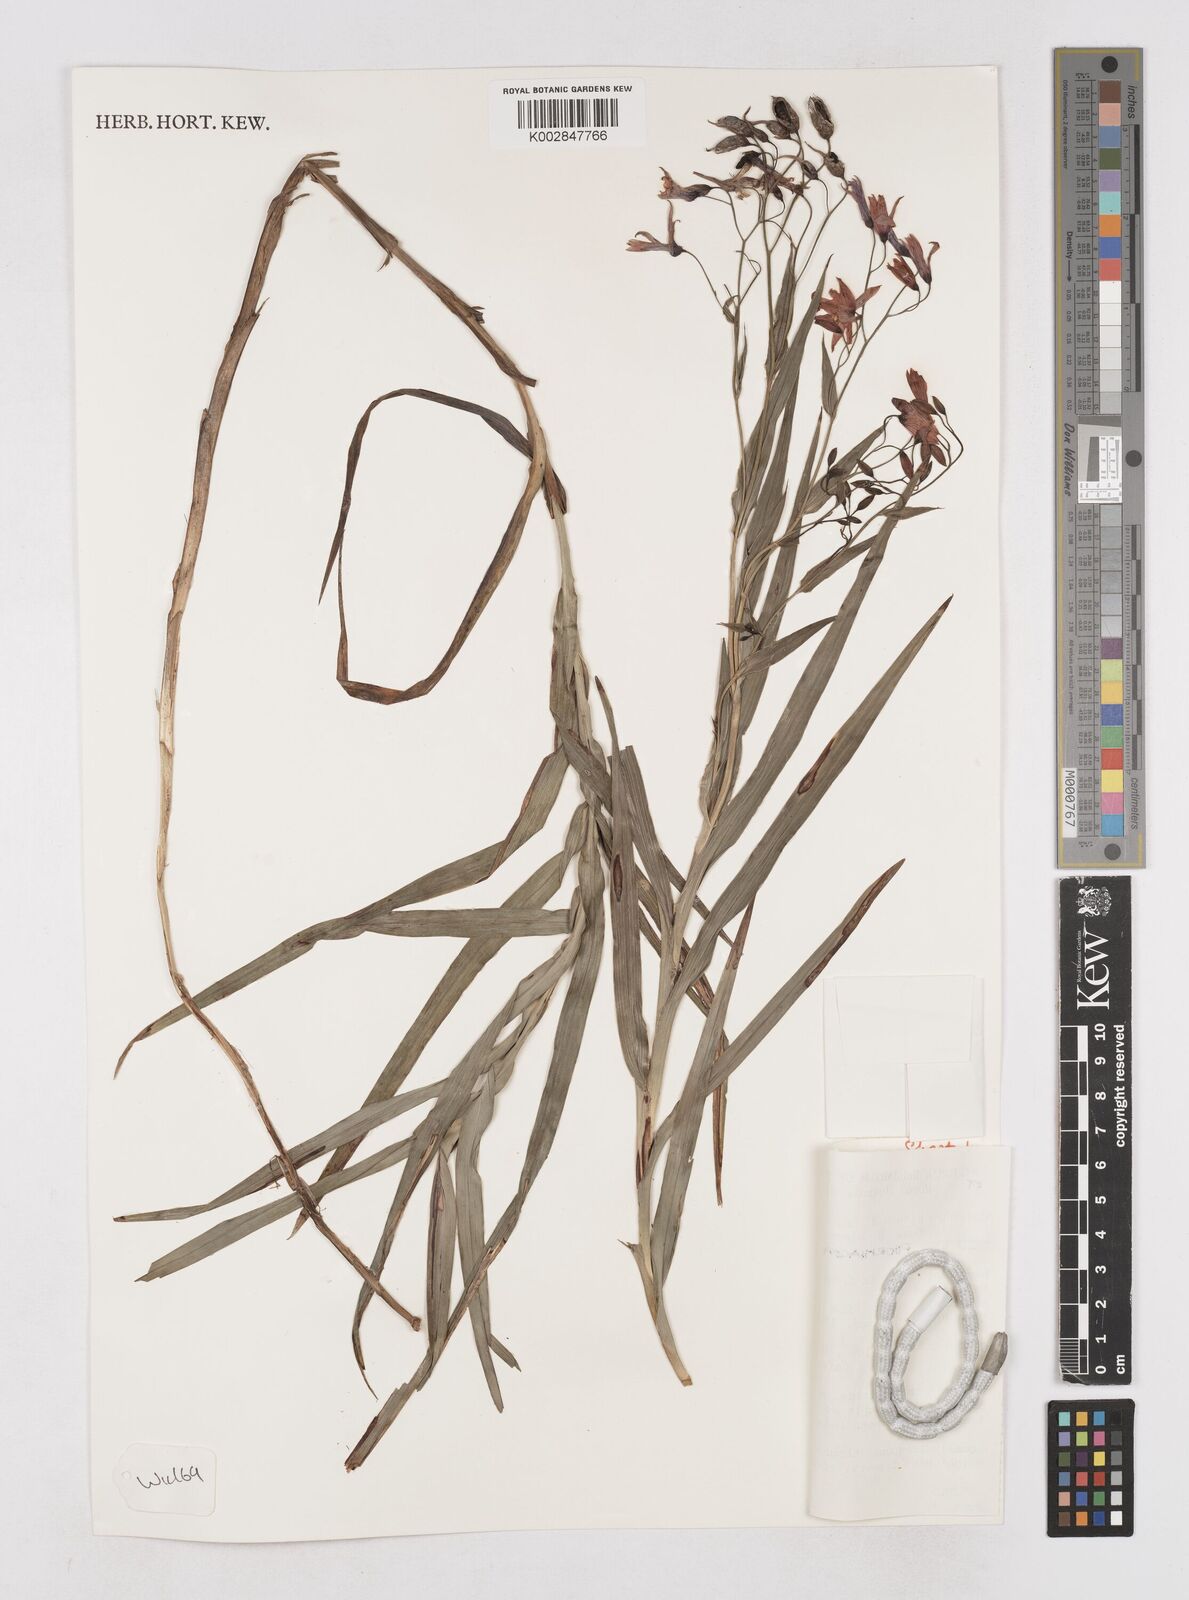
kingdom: Plantae
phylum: Tracheophyta
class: Liliopsida
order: Asparagales
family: Asphodelaceae
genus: Stypandra
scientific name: Stypandra glauca
